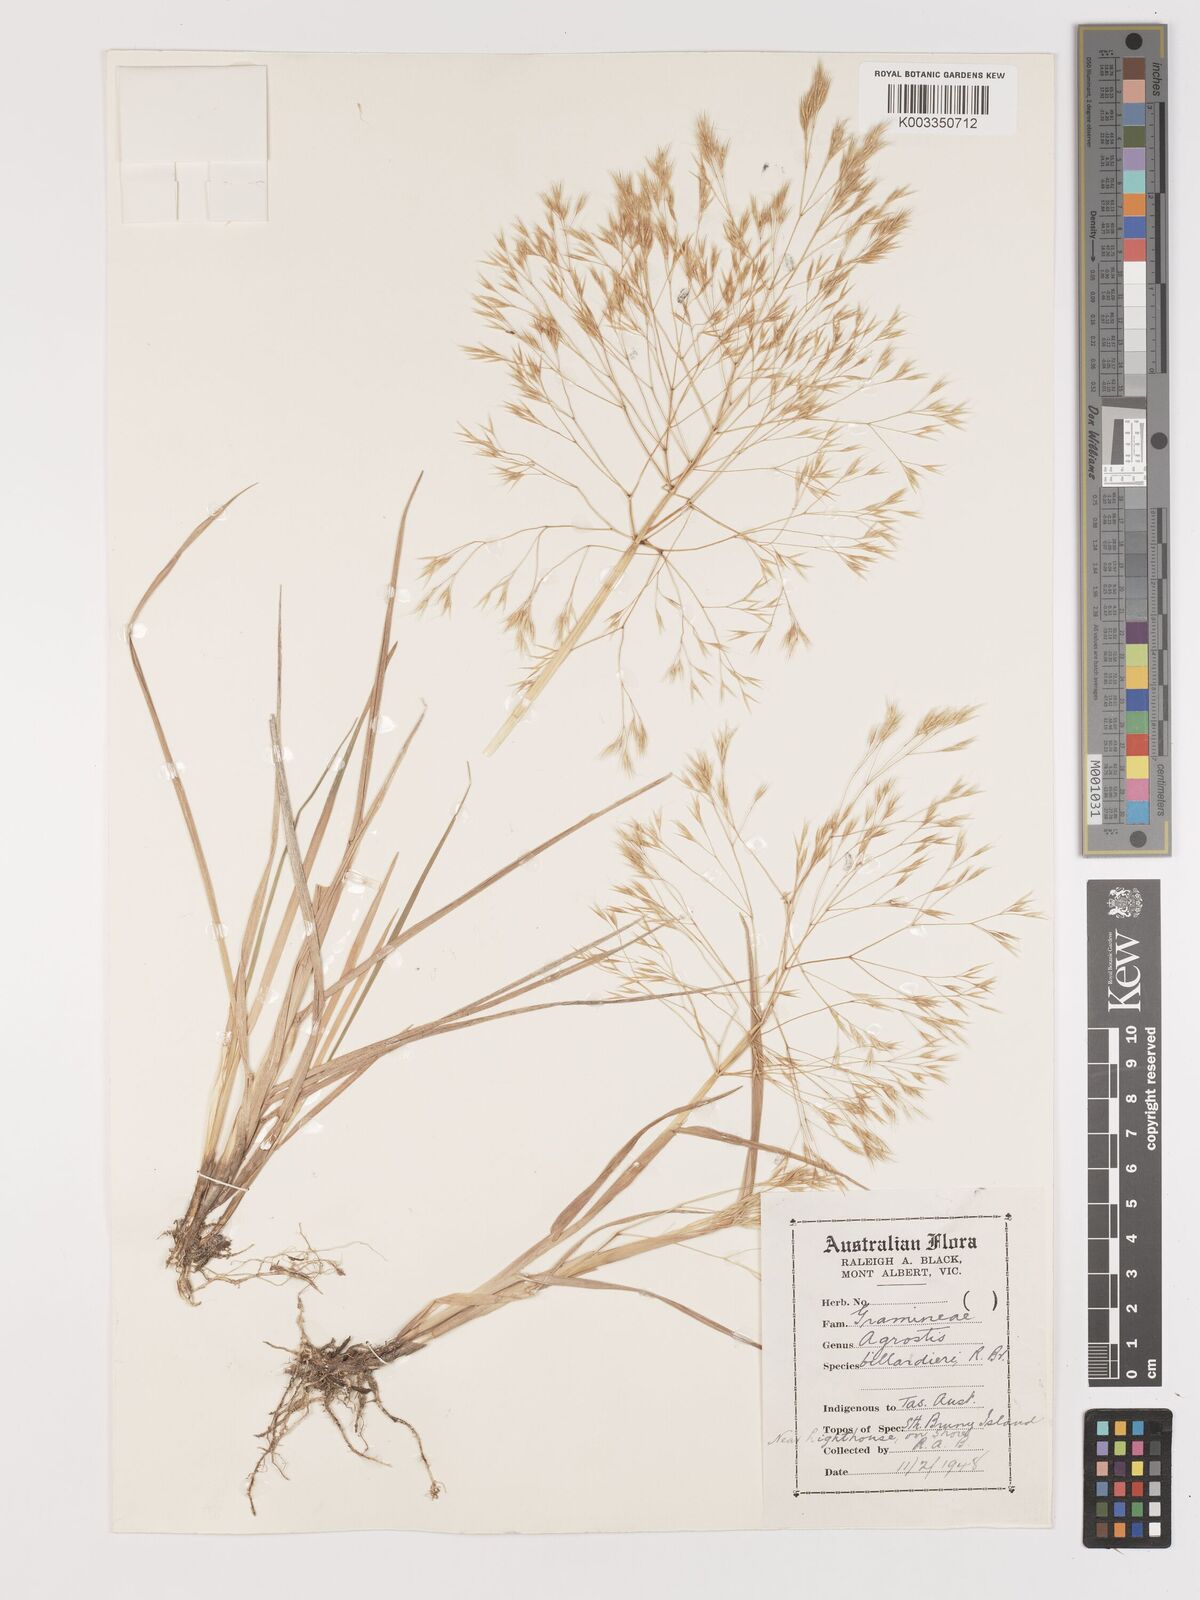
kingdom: Plantae
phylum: Tracheophyta
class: Liliopsida
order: Poales
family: Poaceae
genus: Lachnagrostis
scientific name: Lachnagrostis billardierei
